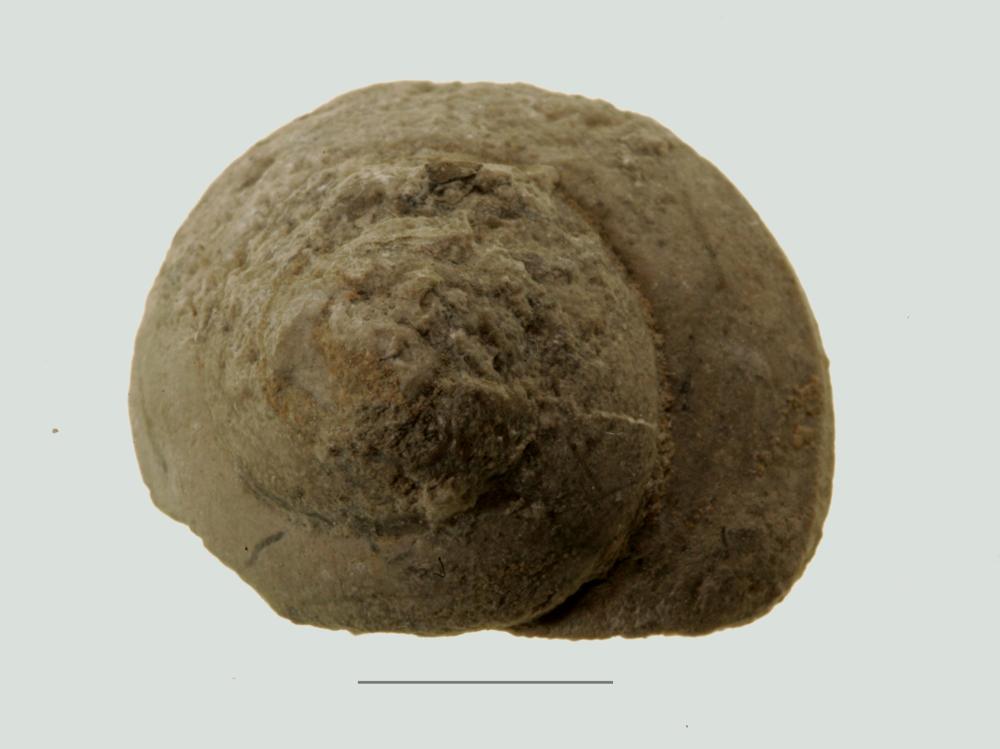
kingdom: Animalia
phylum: Mollusca
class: Gastropoda
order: Trochida
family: Trochidae
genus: Trochus
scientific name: Trochus ellipticus
